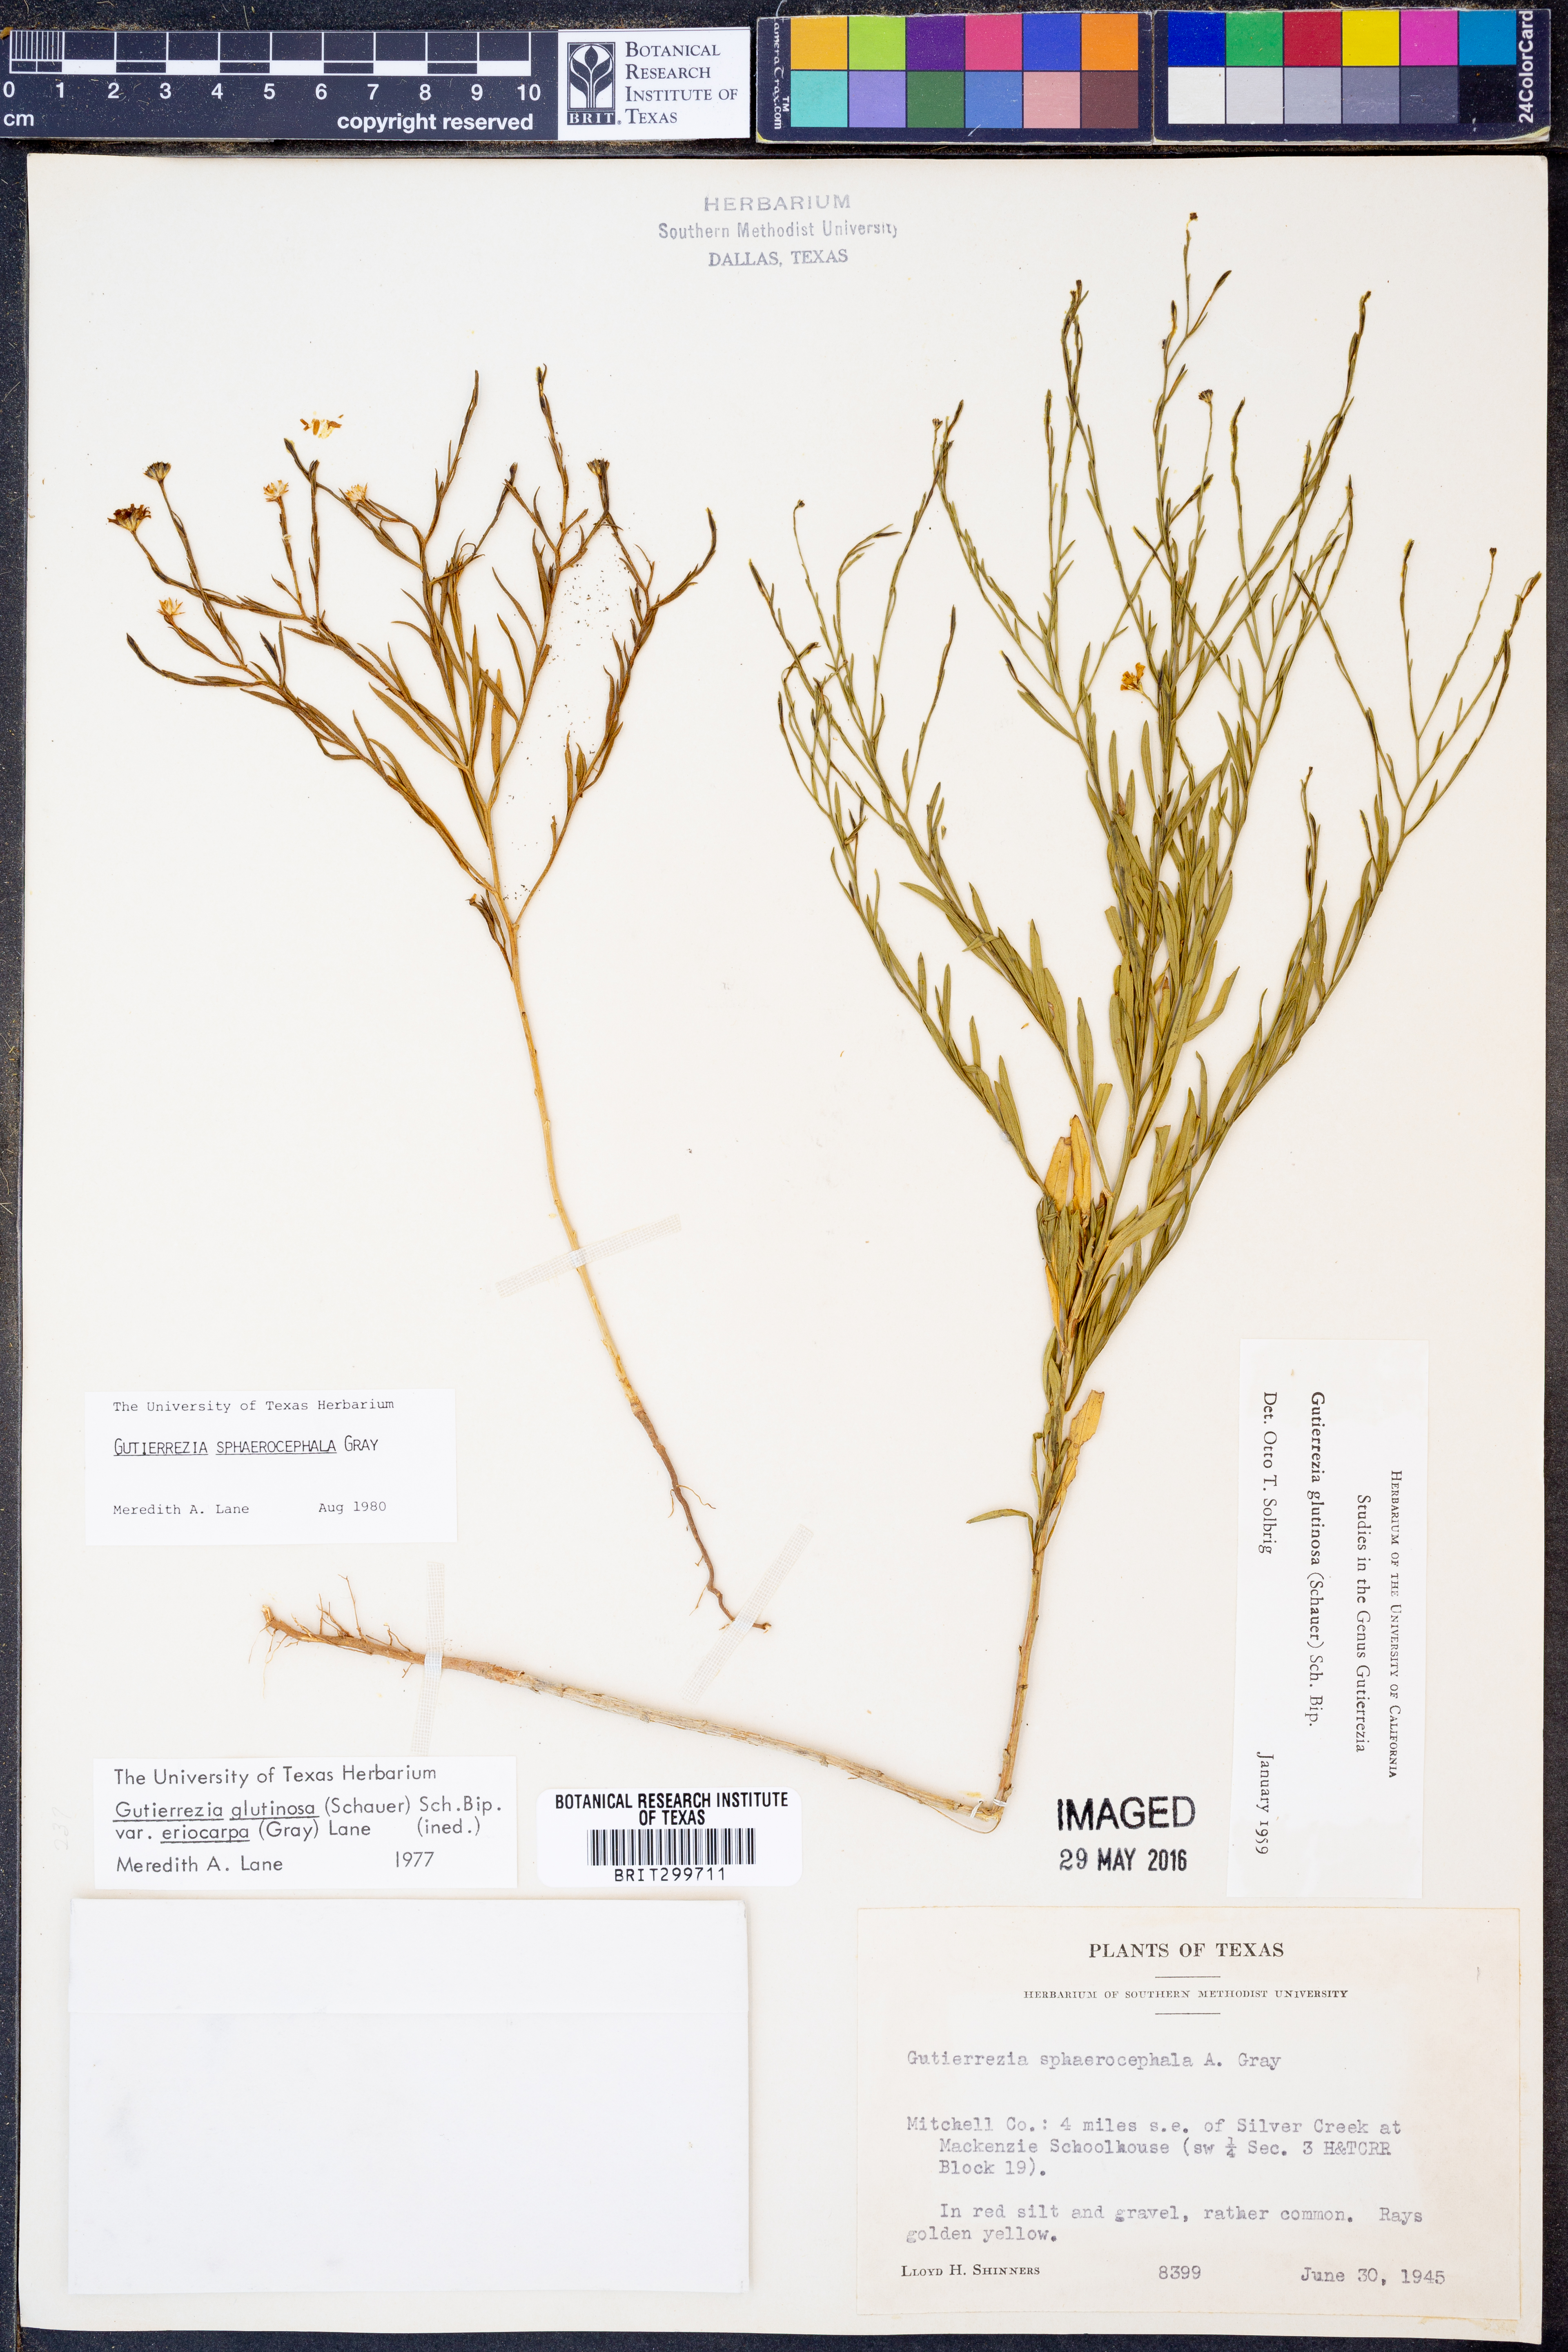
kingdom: Plantae
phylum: Tracheophyta
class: Magnoliopsida
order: Asterales
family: Asteraceae
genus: Gutierrezia
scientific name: Gutierrezia sphaerocephala
